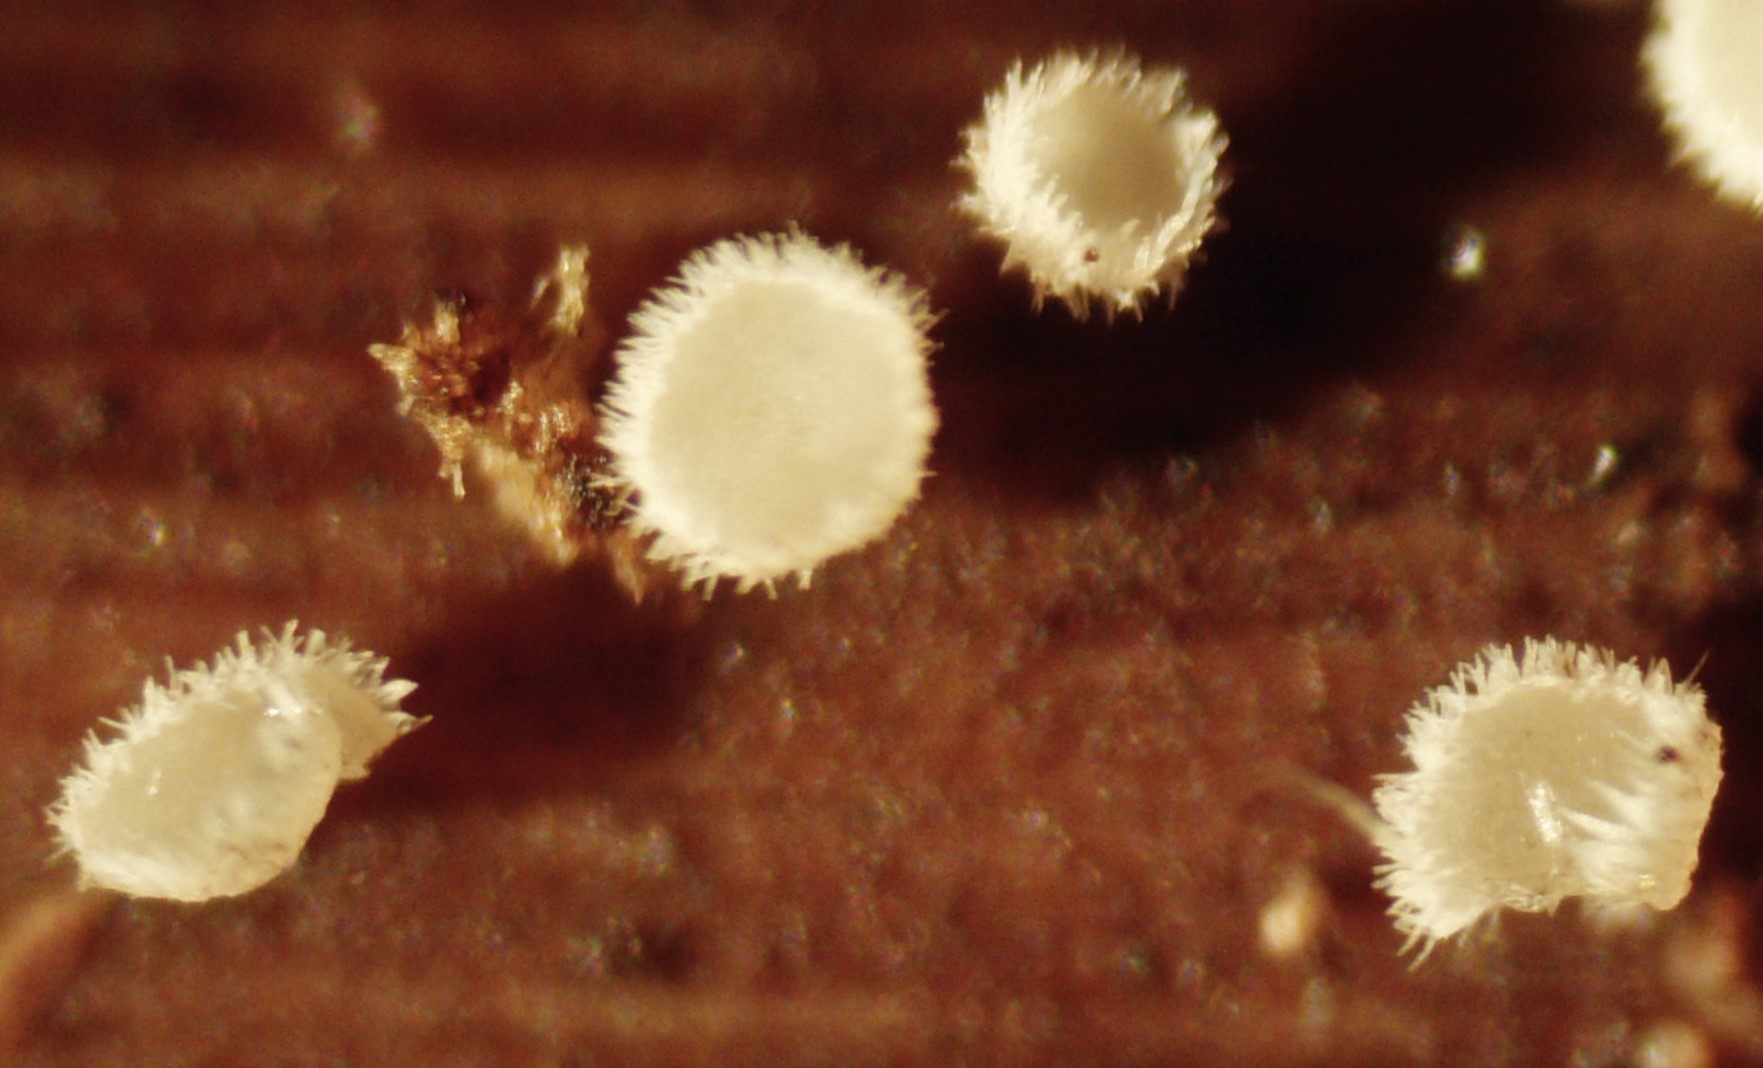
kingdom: Fungi
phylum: Ascomycota
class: Leotiomycetes
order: Helotiales
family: Lachnaceae
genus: Lachnum
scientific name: Lachnum
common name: frynseskive
